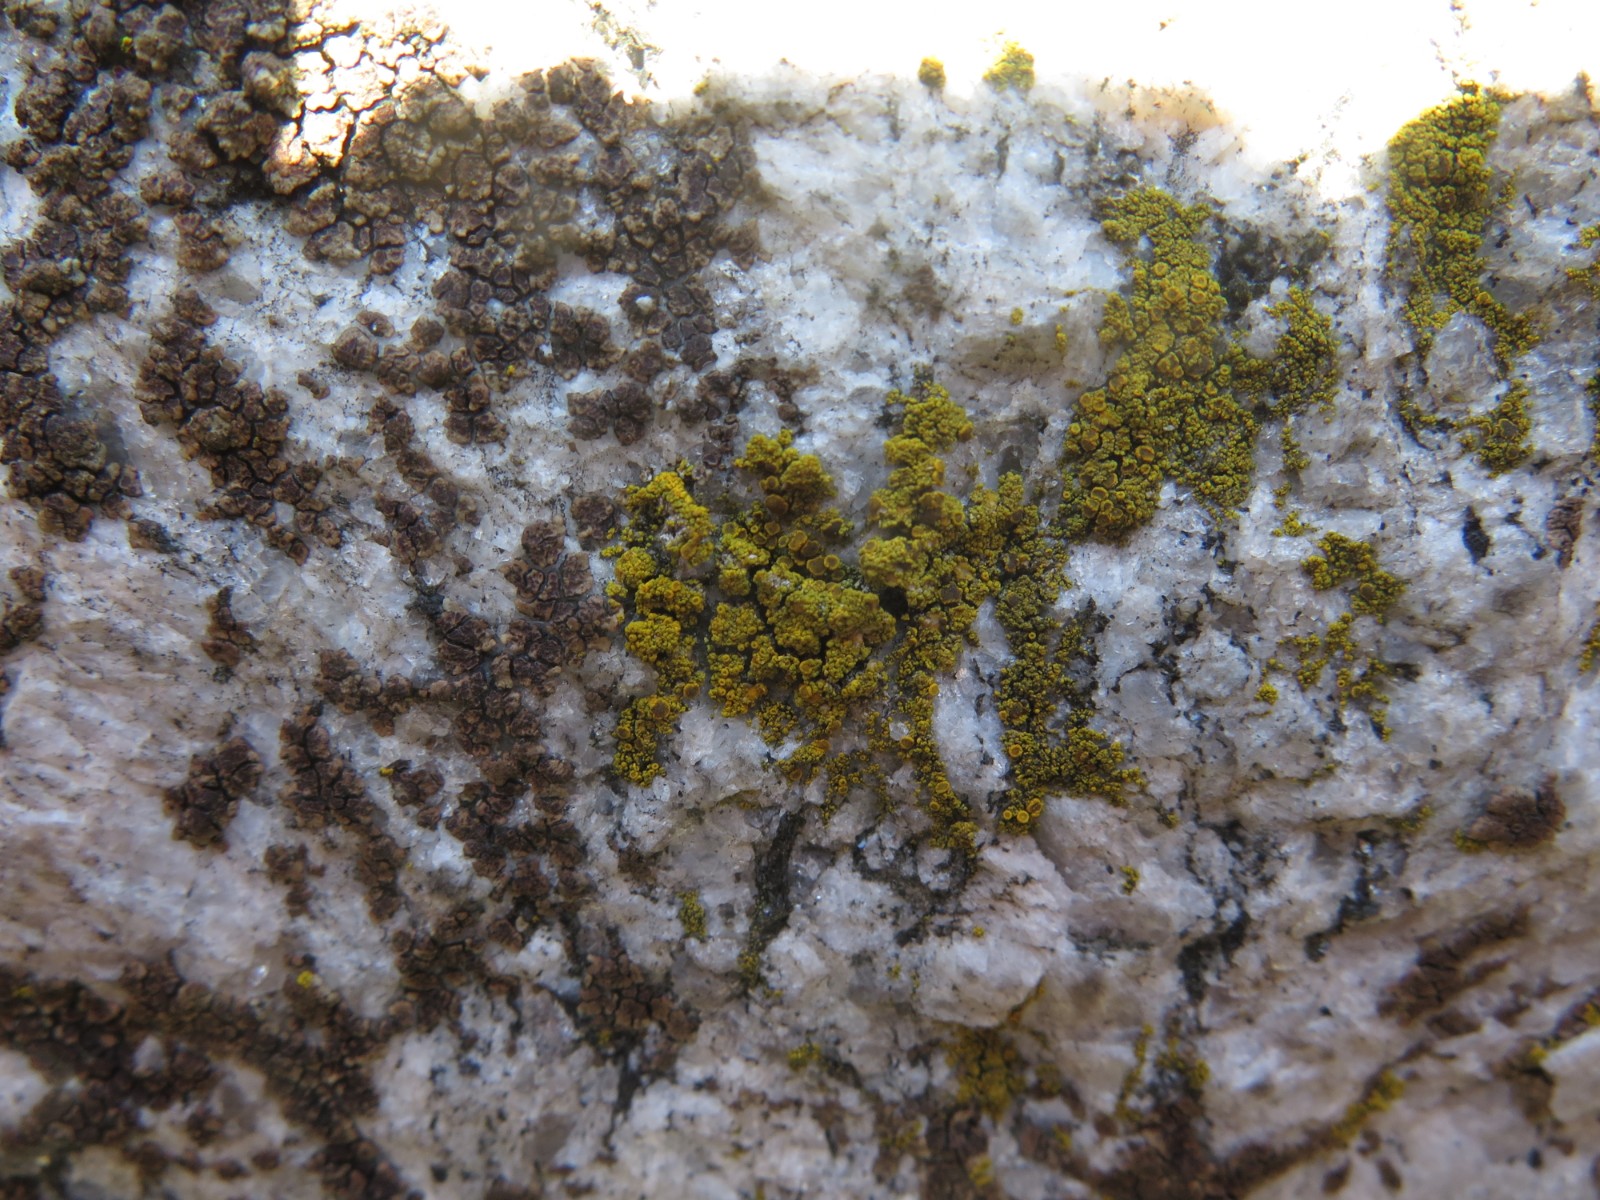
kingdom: Fungi
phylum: Ascomycota
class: Candelariomycetes
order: Candelariales
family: Candelariaceae
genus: Candelariella
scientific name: Candelariella vitellina
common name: almindelig æggeblommelav
